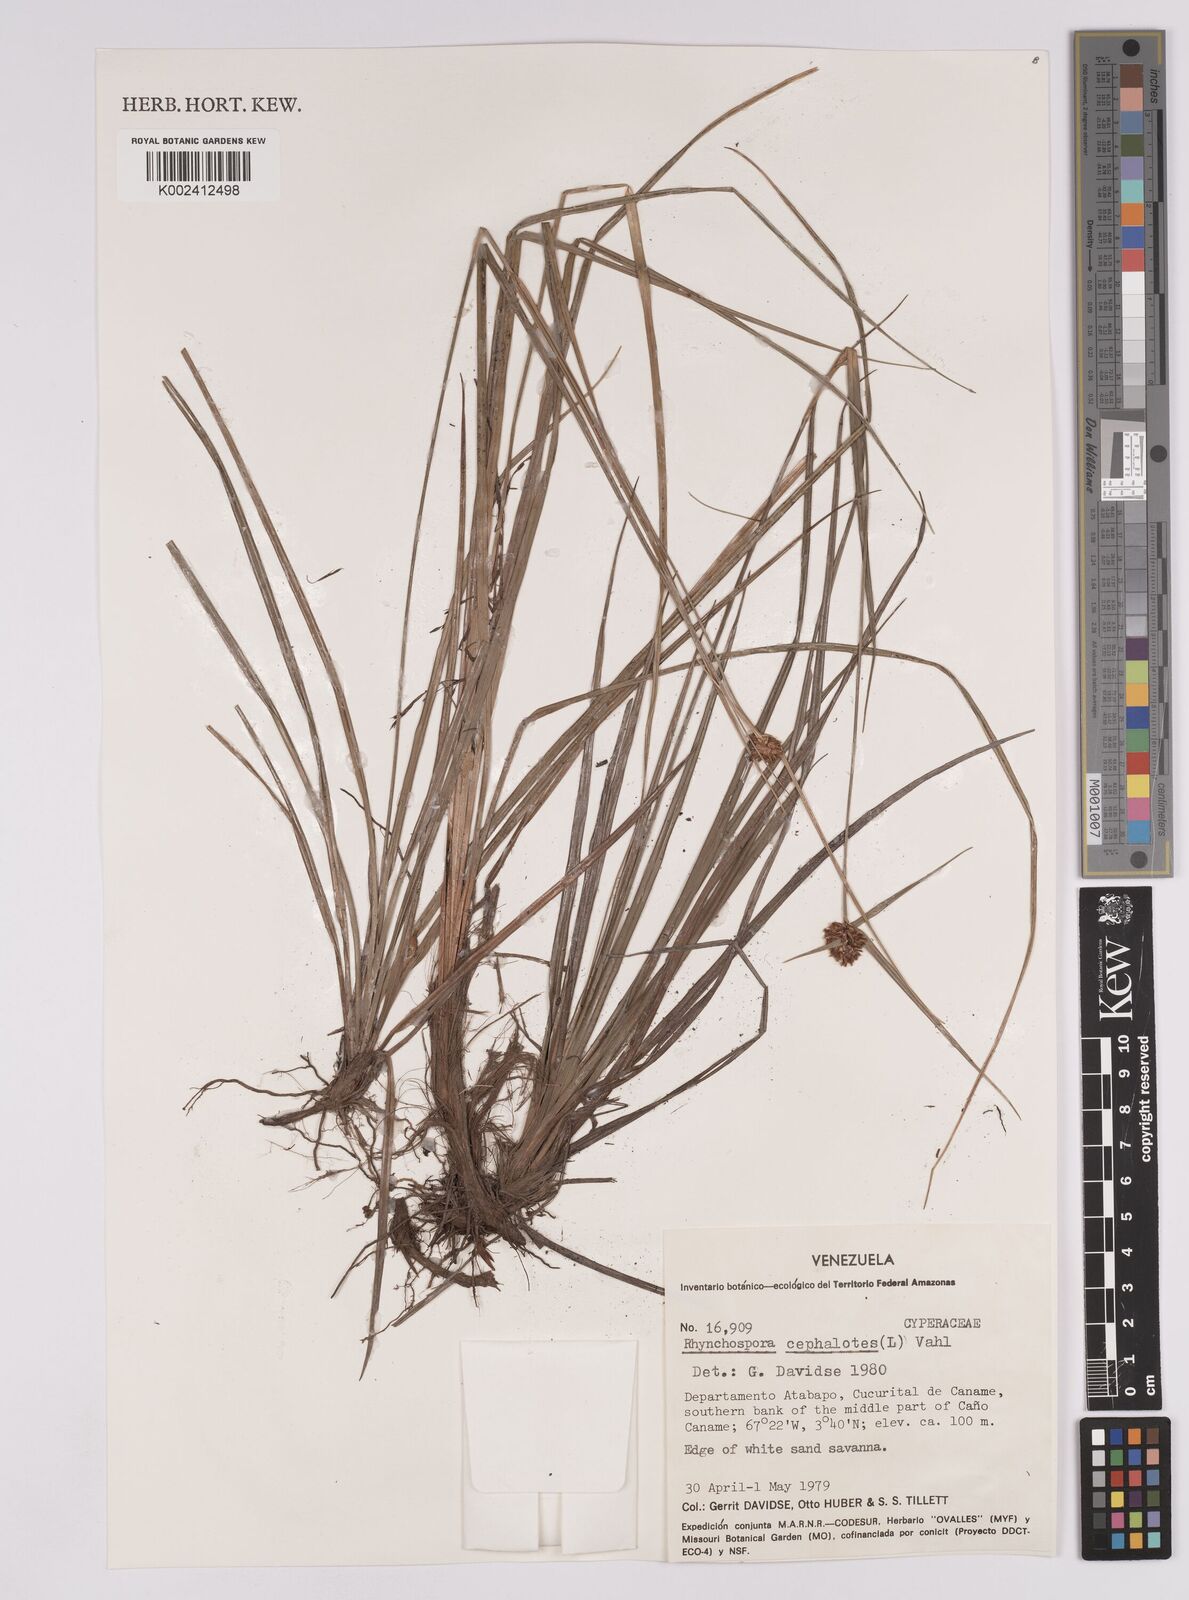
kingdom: Plantae
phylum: Tracheophyta
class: Liliopsida
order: Poales
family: Cyperaceae
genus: Rhynchospora
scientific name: Rhynchospora cephalotes
